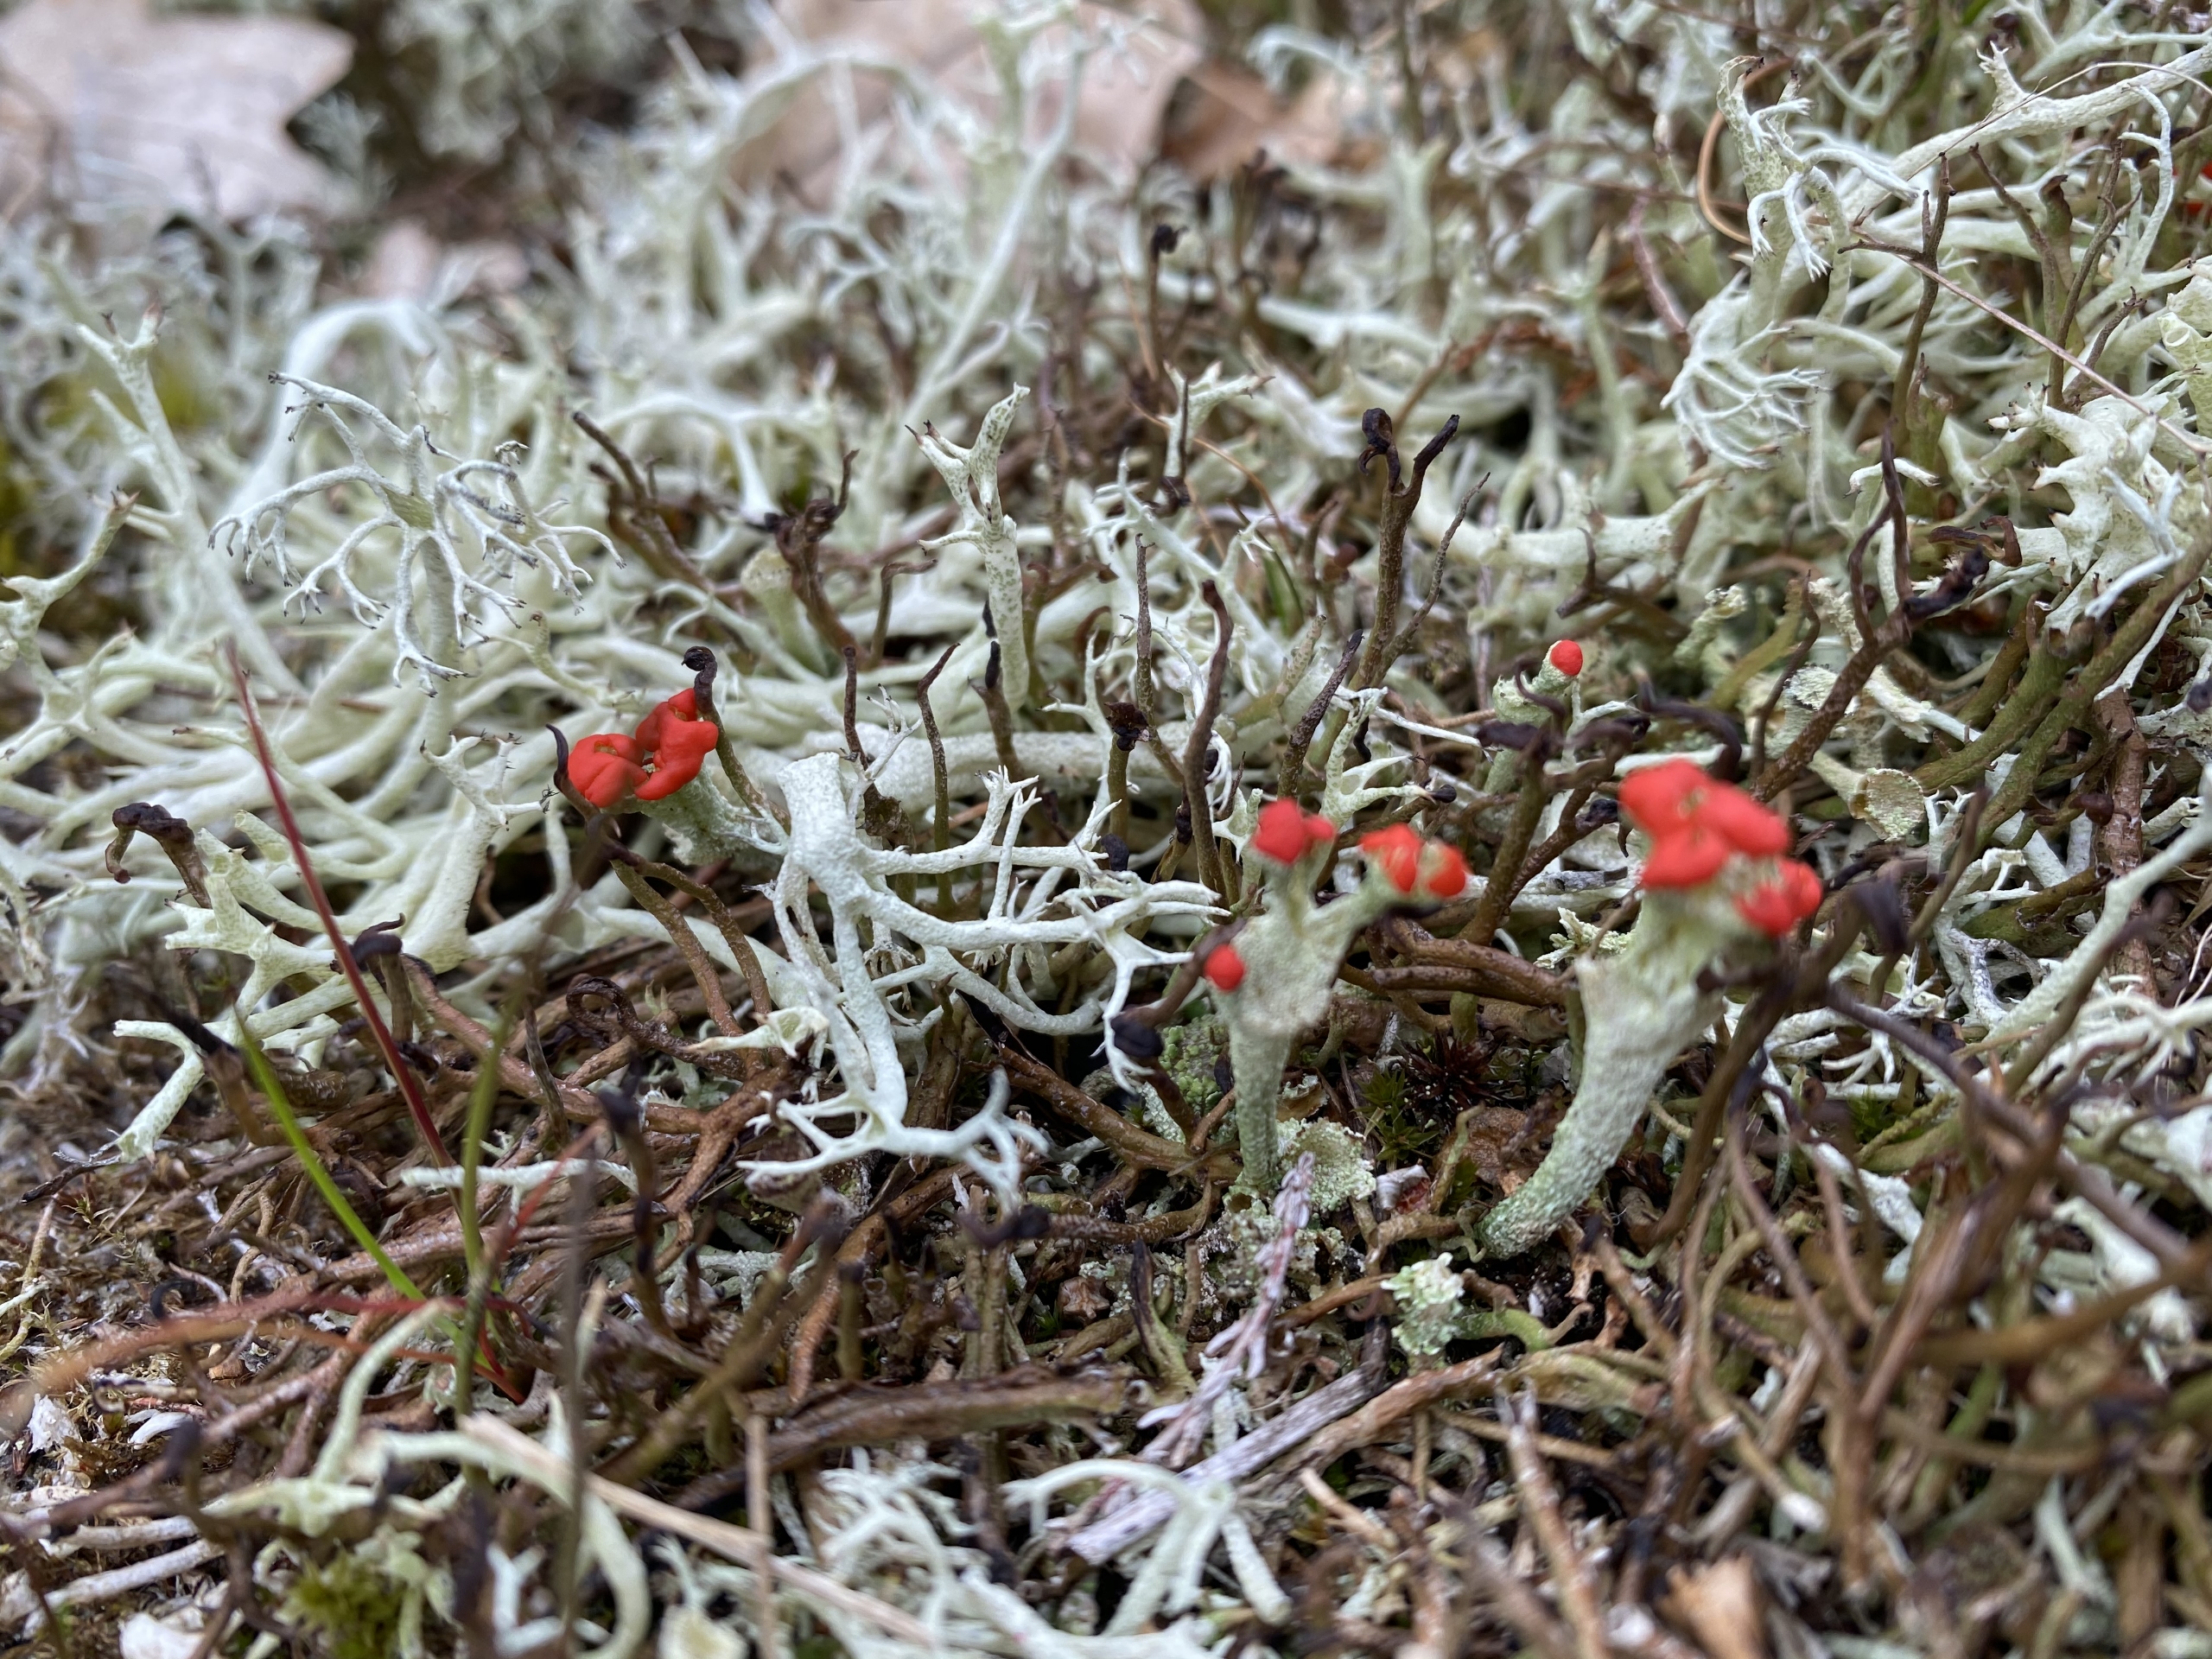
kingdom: Fungi
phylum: Ascomycota
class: Lecanoromycetes
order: Lecanorales
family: Cladoniaceae
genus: Cladonia
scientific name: Cladonia
